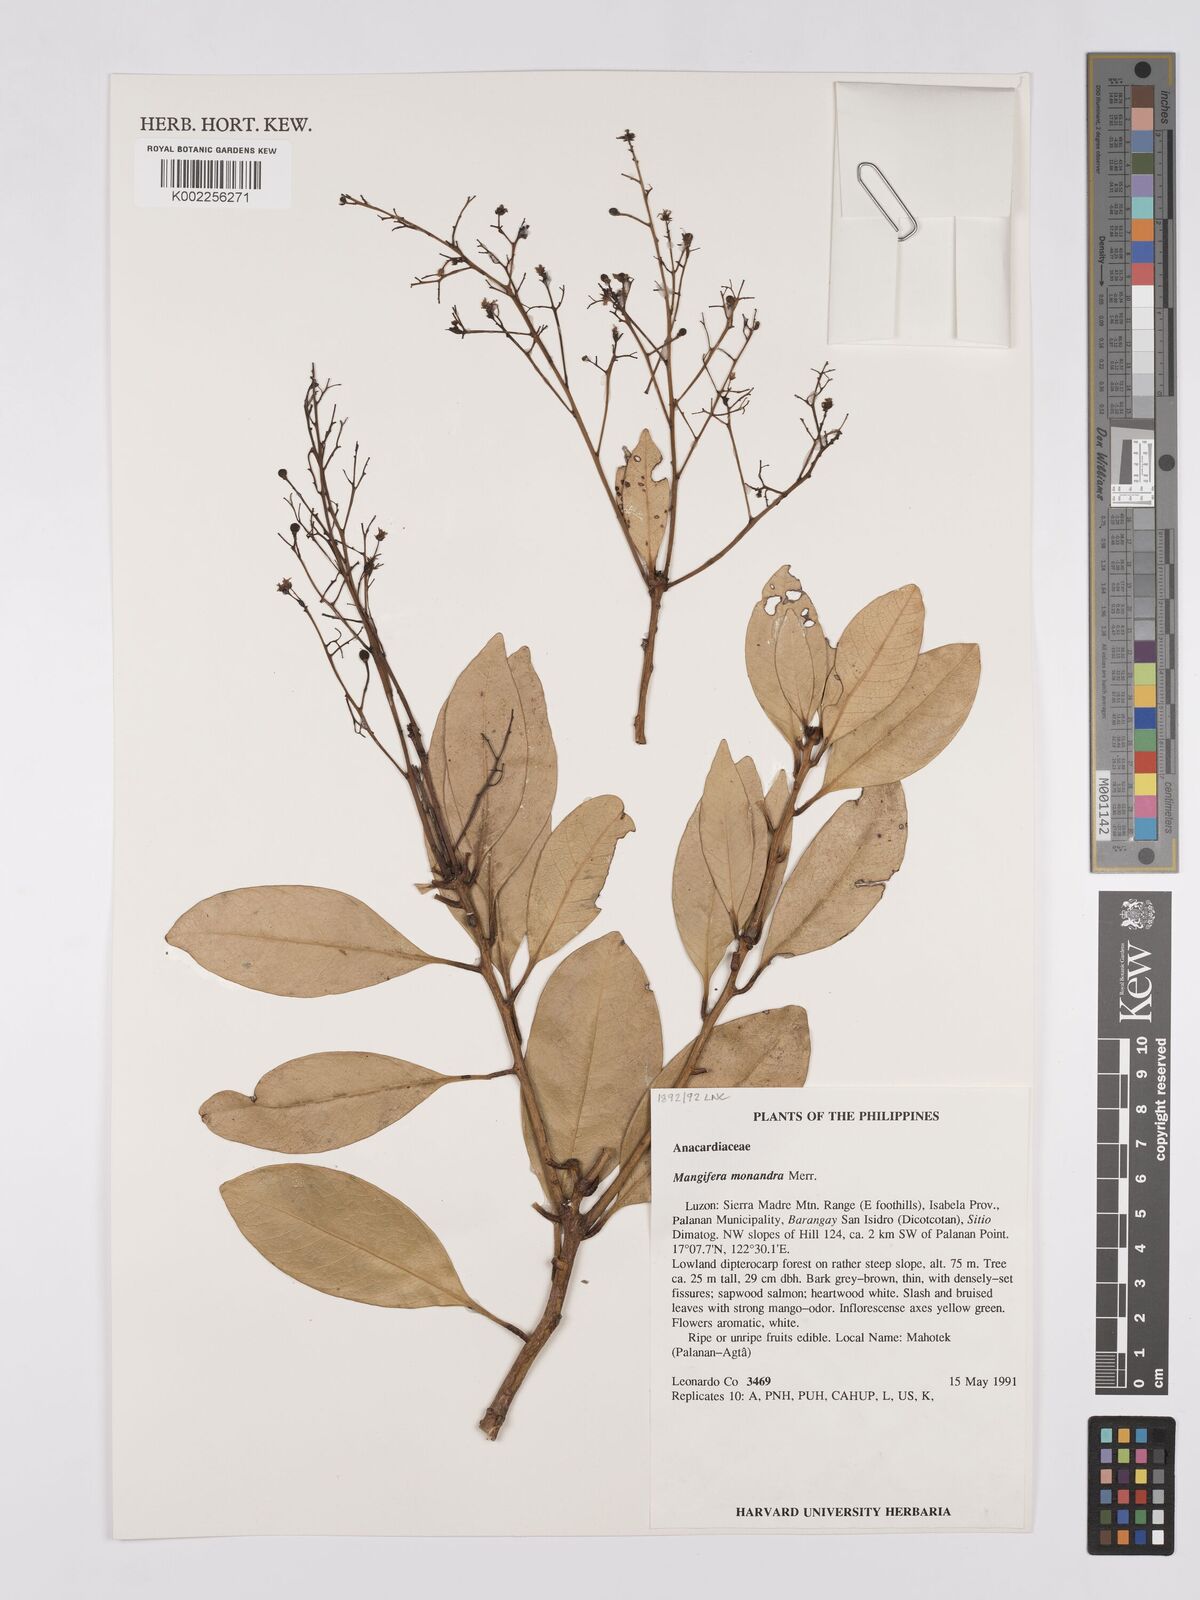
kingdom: Plantae
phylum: Tracheophyta
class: Magnoliopsida
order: Sapindales
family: Anacardiaceae
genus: Mangifera
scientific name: Mangifera monandra
